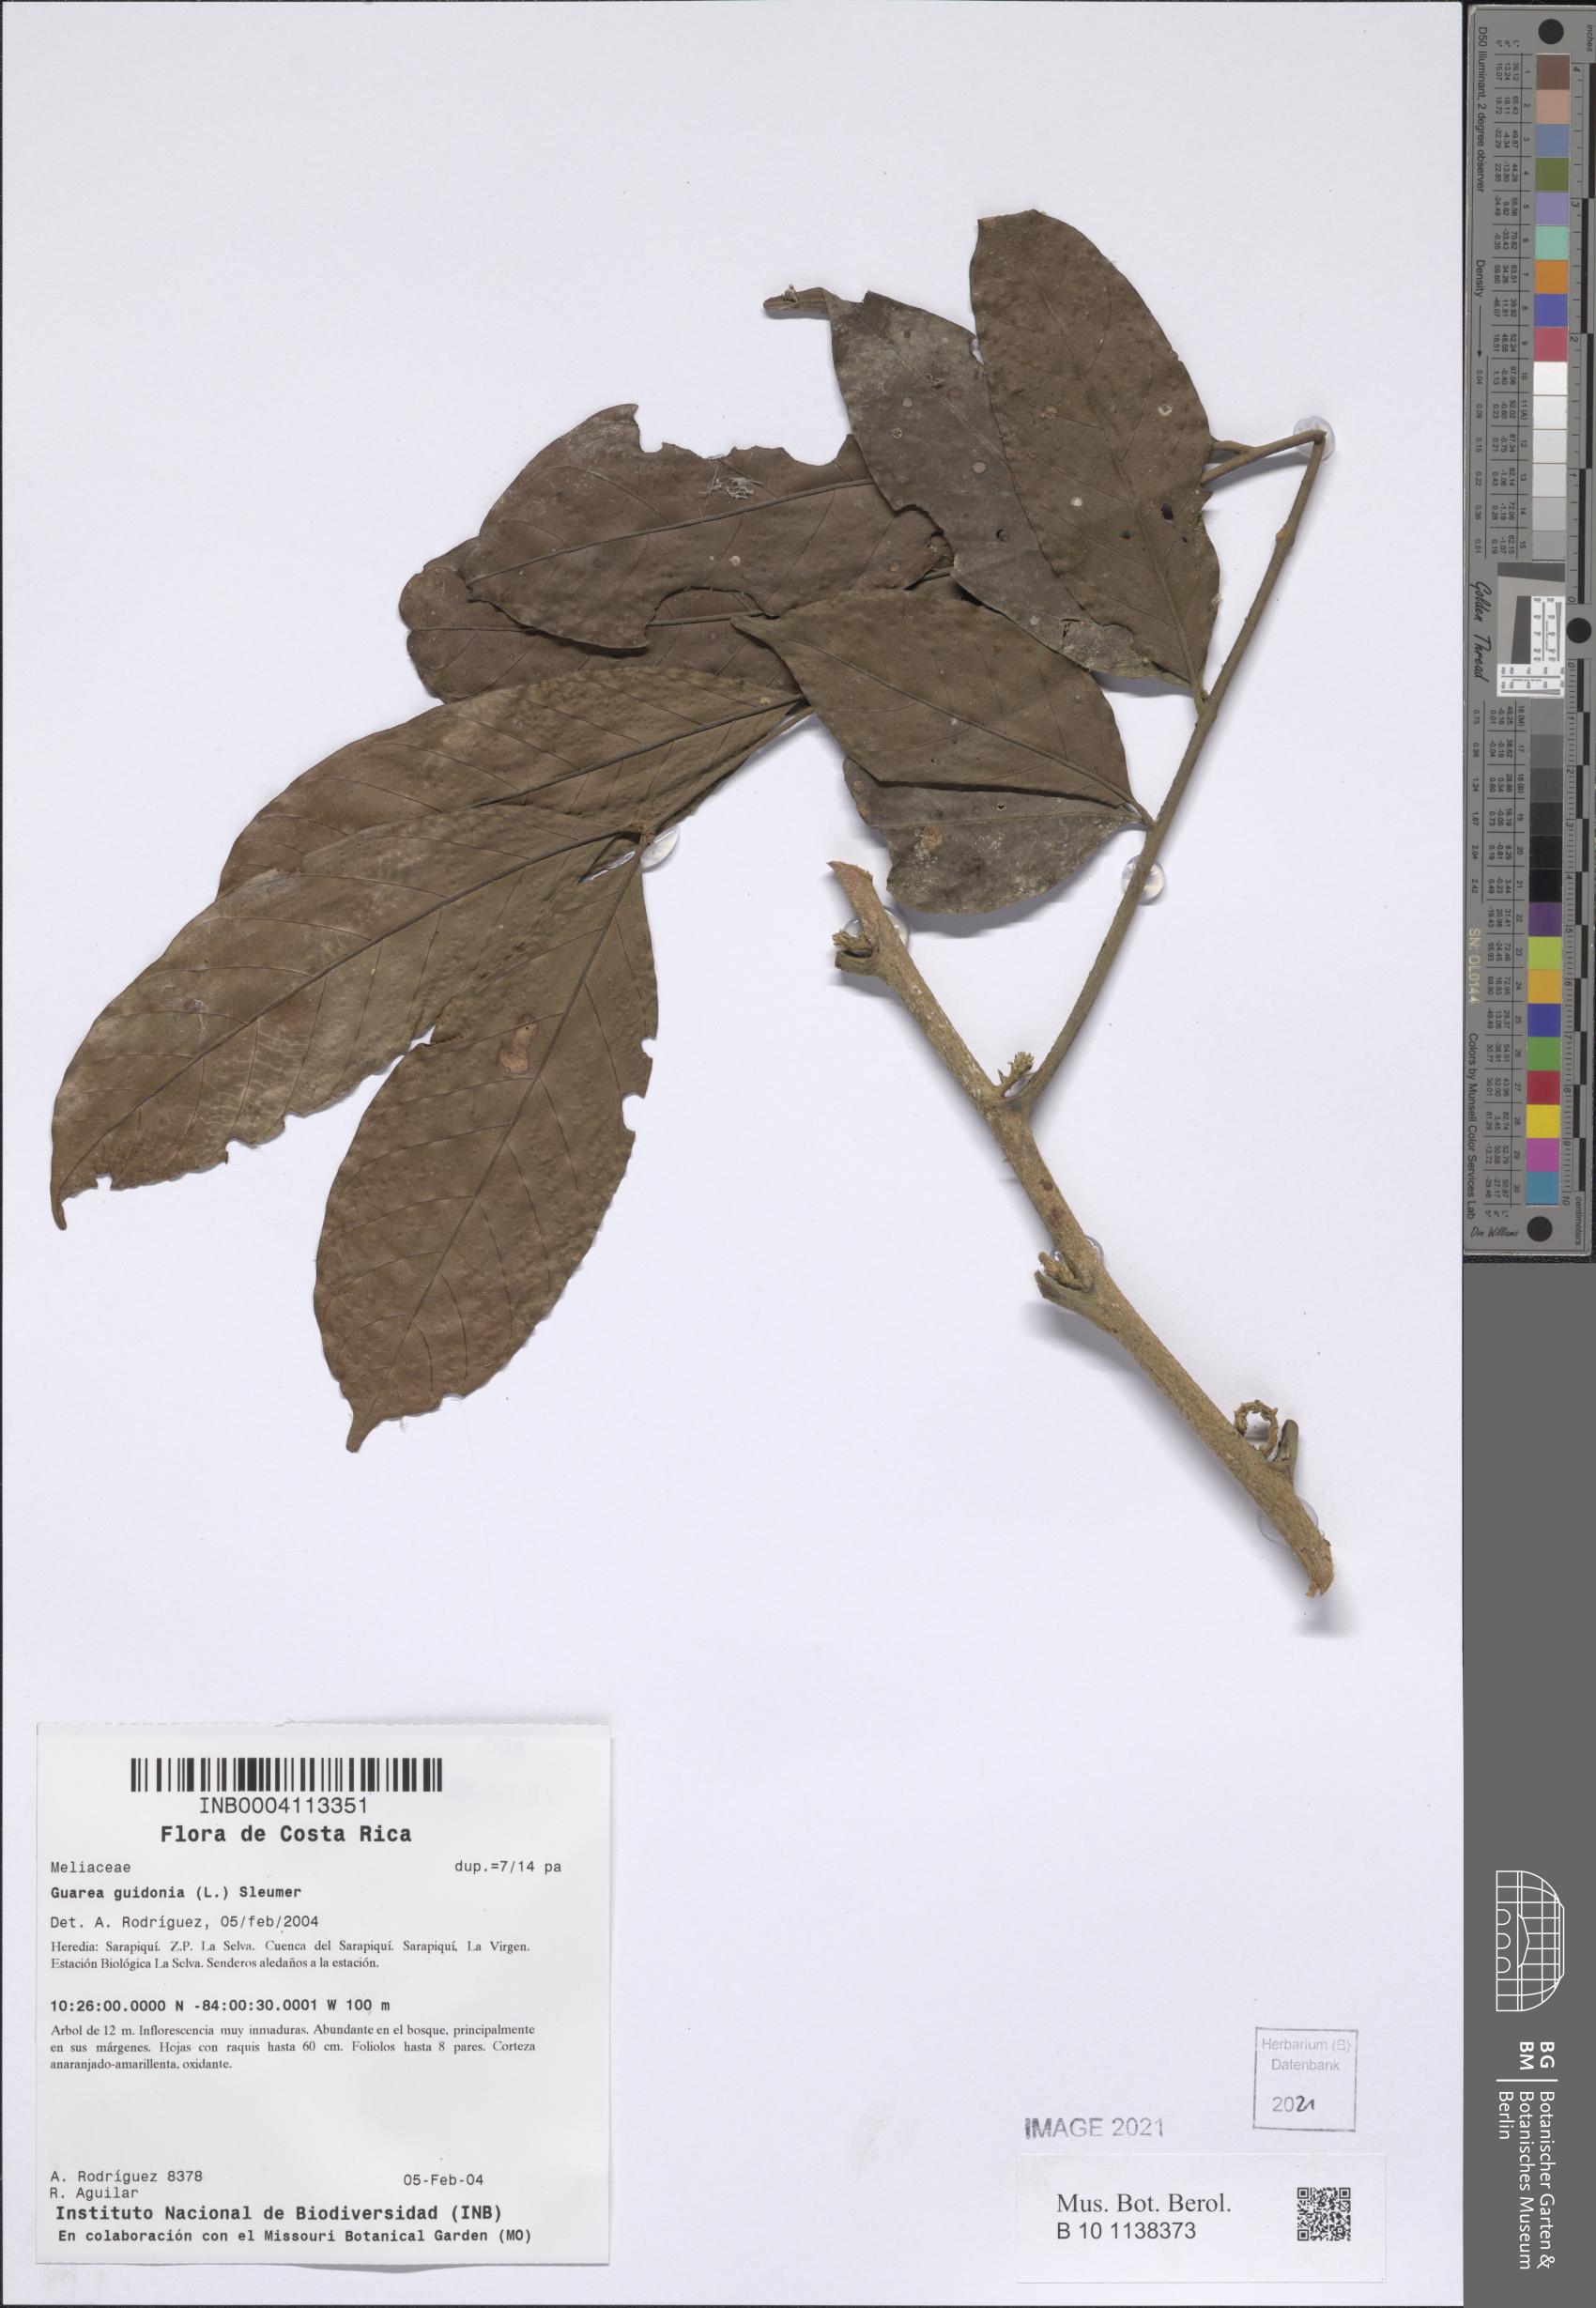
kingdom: Plantae
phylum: Tracheophyta
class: Magnoliopsida
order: Sapindales
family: Meliaceae
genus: Guarea
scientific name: Guarea guidonia
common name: American muskwood
